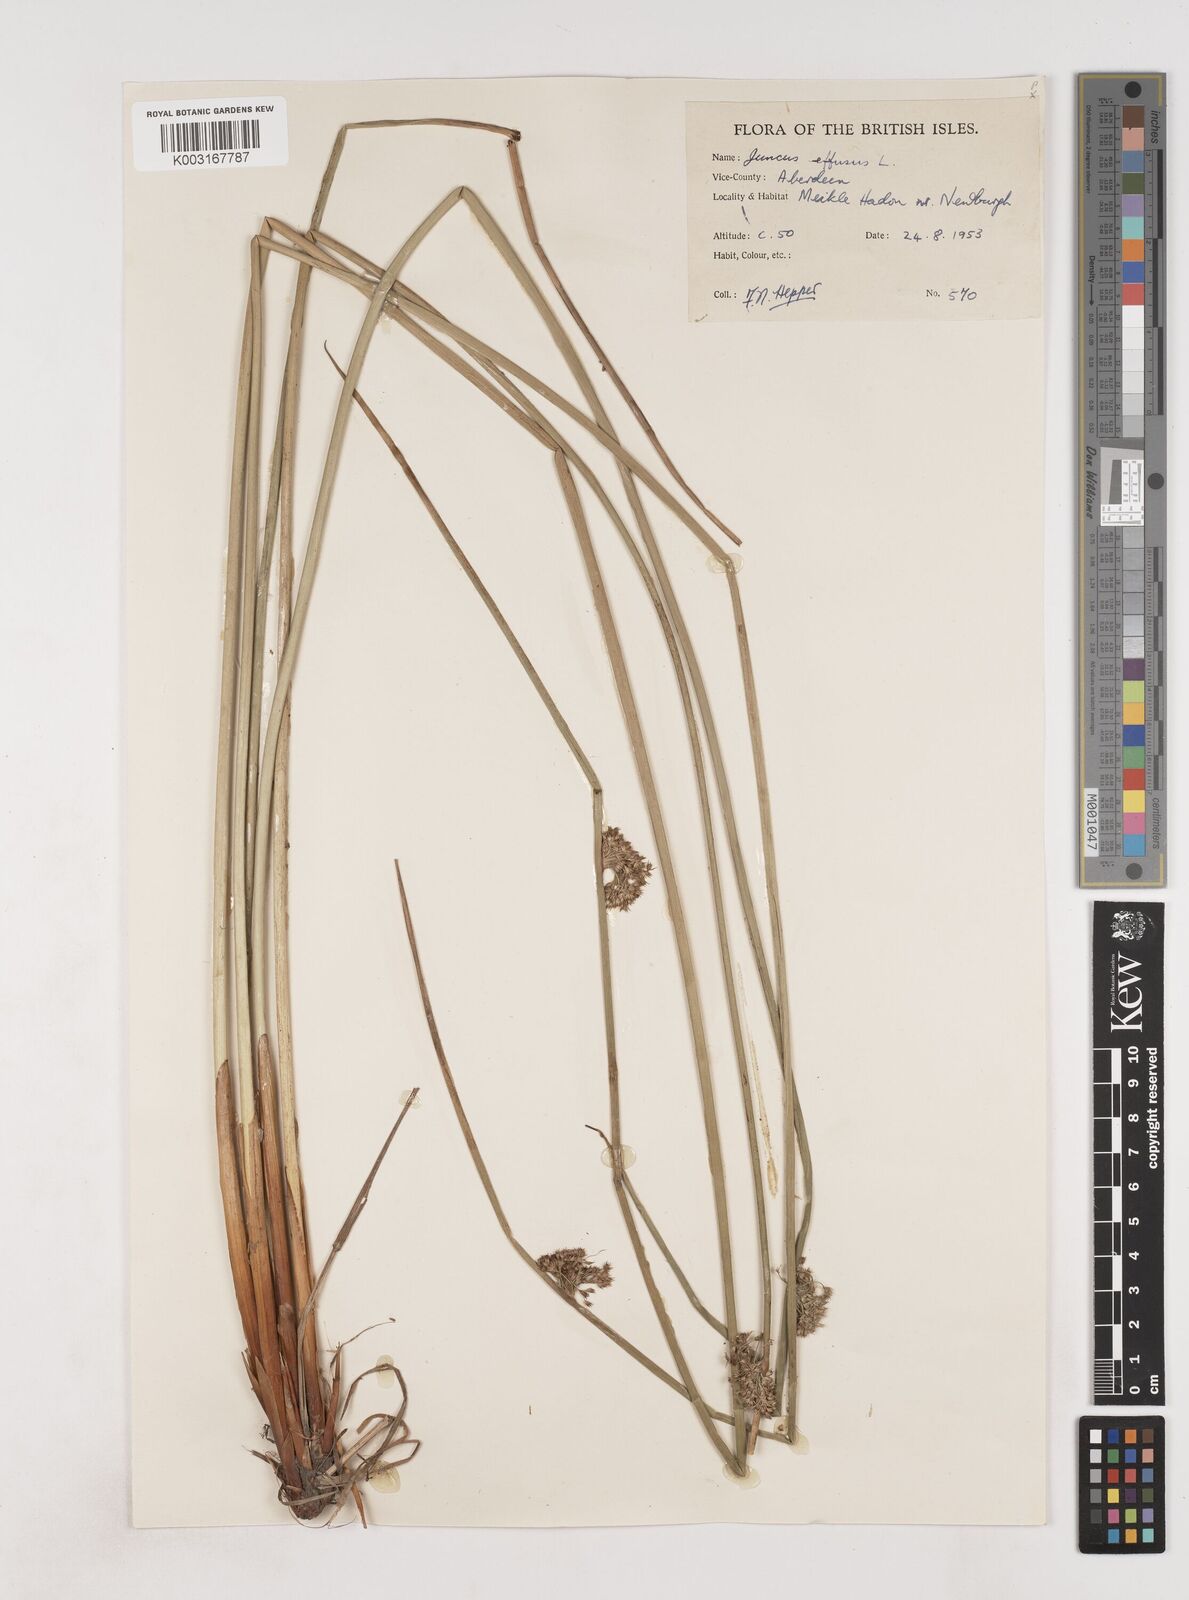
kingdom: Plantae
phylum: Tracheophyta
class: Liliopsida
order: Poales
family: Juncaceae
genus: Juncus
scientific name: Juncus effusus
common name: Soft rush
